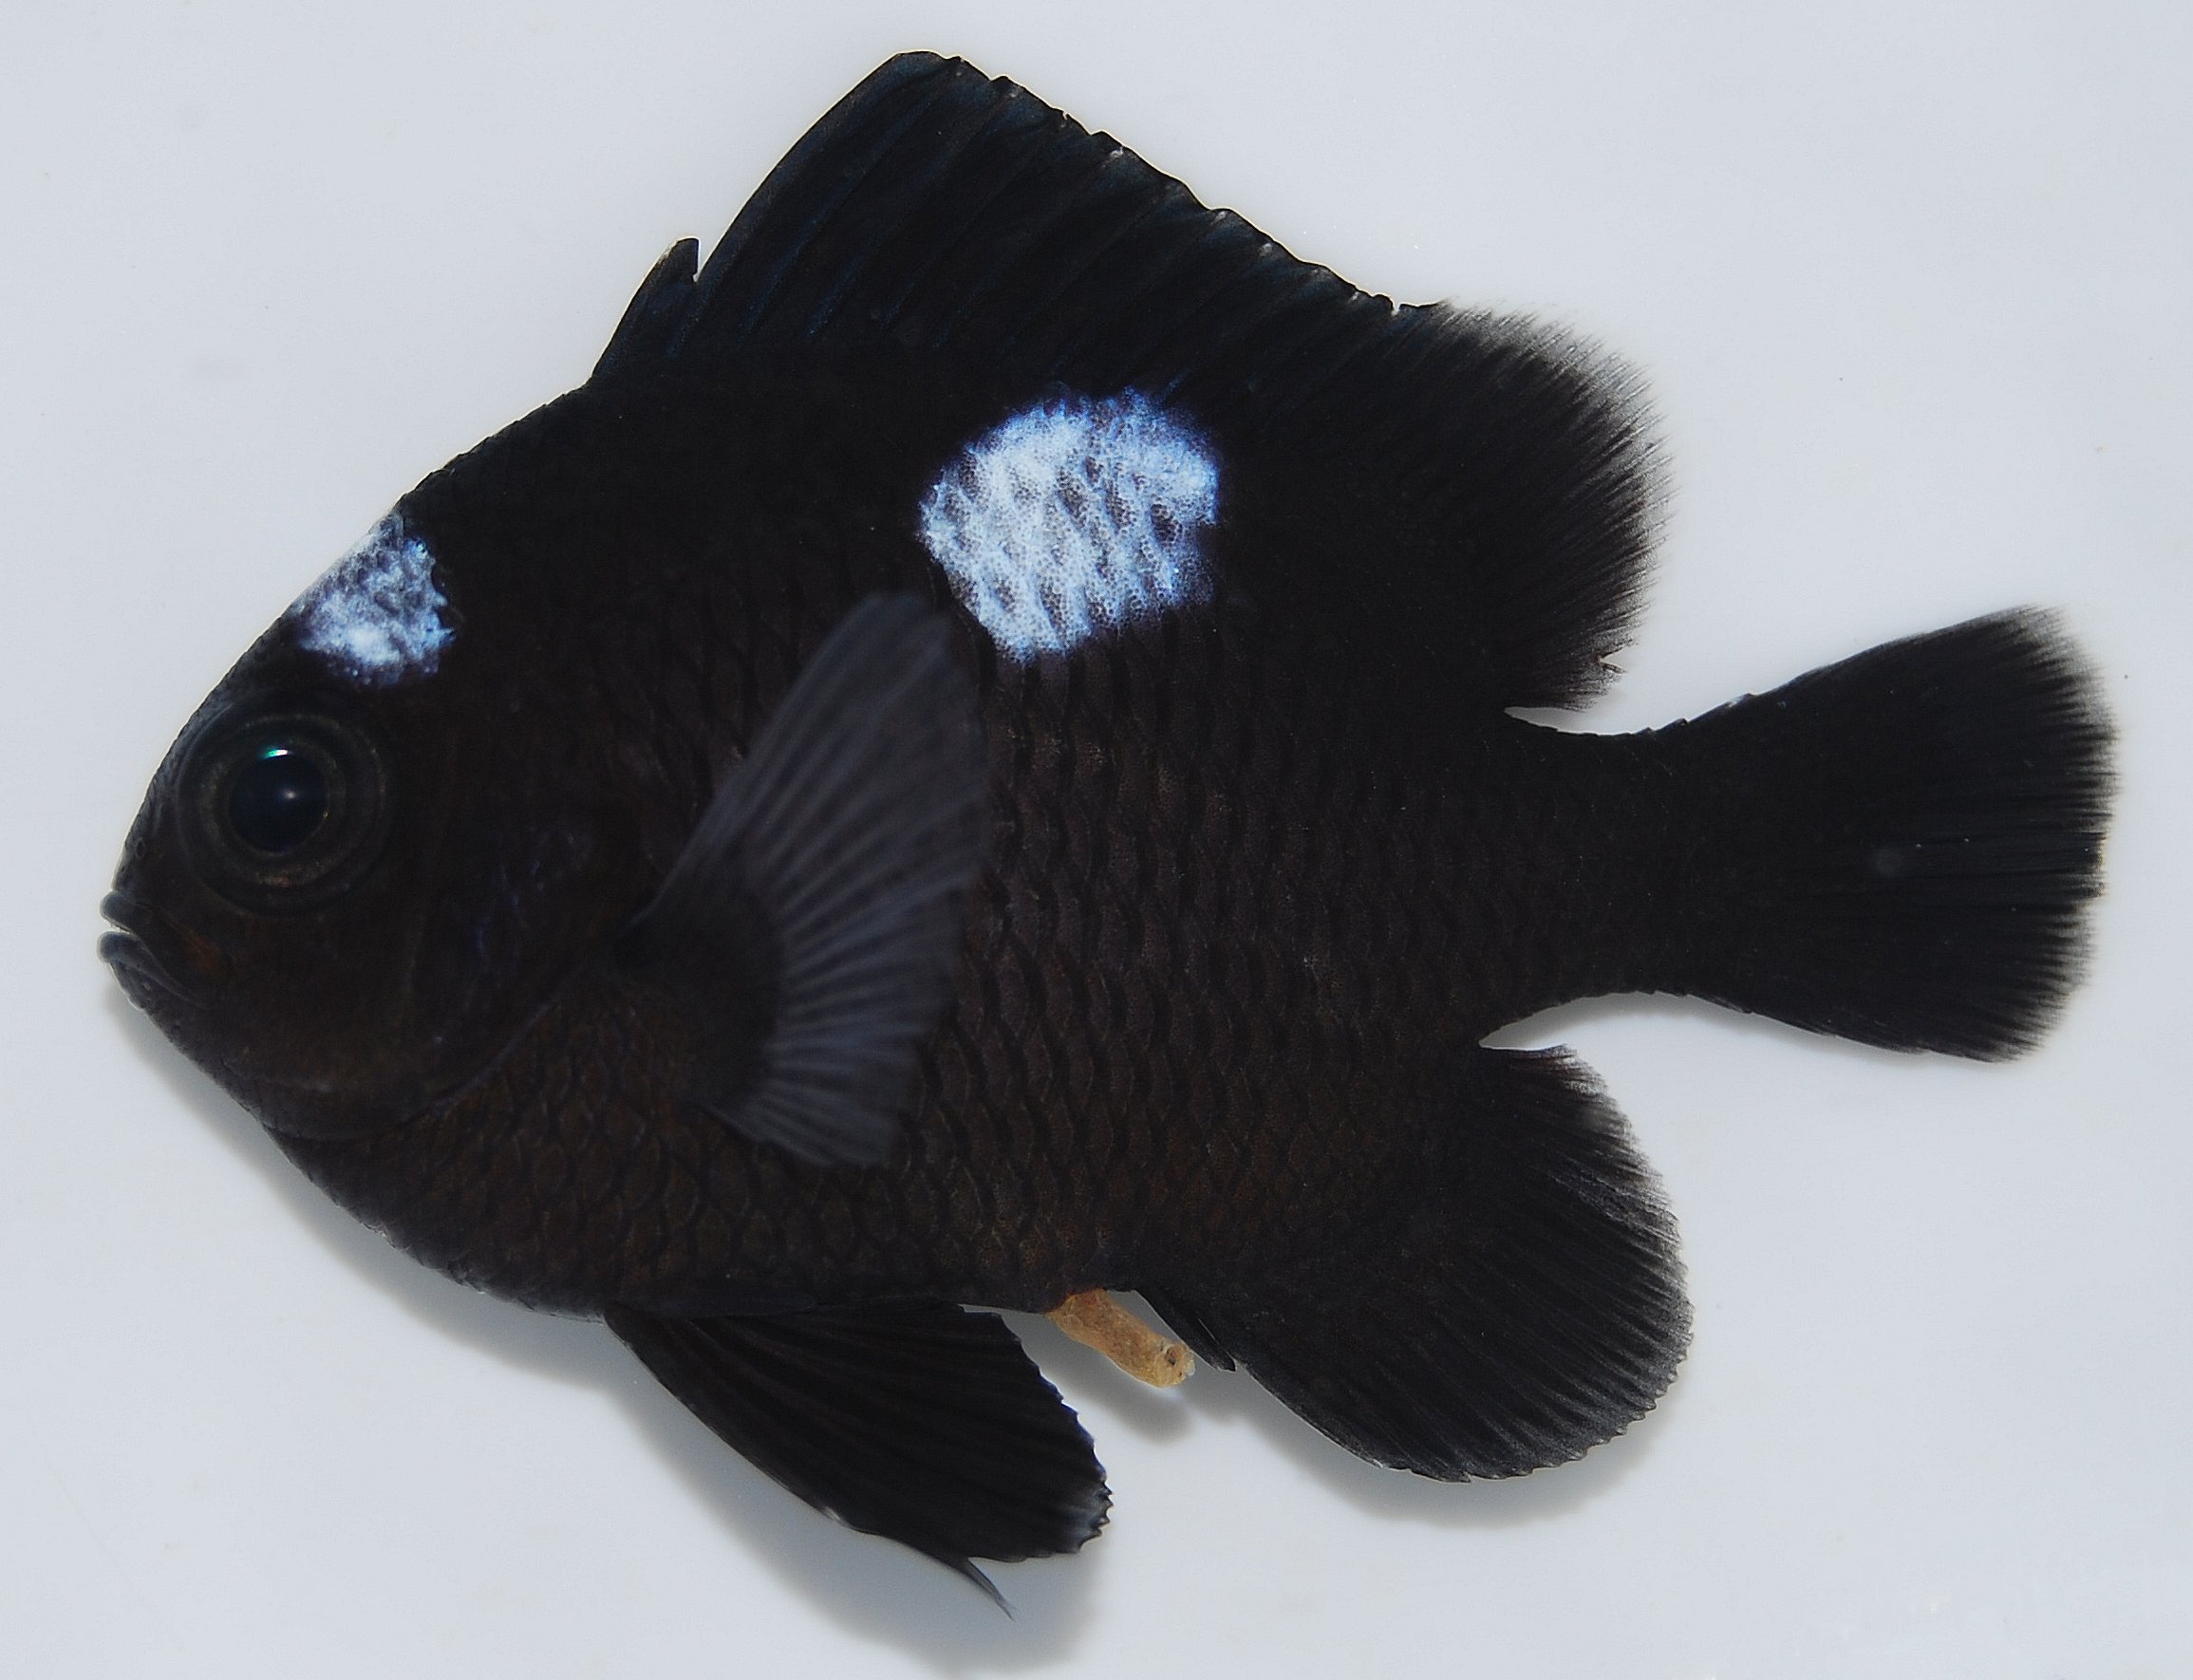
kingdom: Animalia
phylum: Chordata
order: Perciformes
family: Pomacentridae
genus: Dascyllus
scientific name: Dascyllus trimaculatus
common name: Threespot dascyllus
